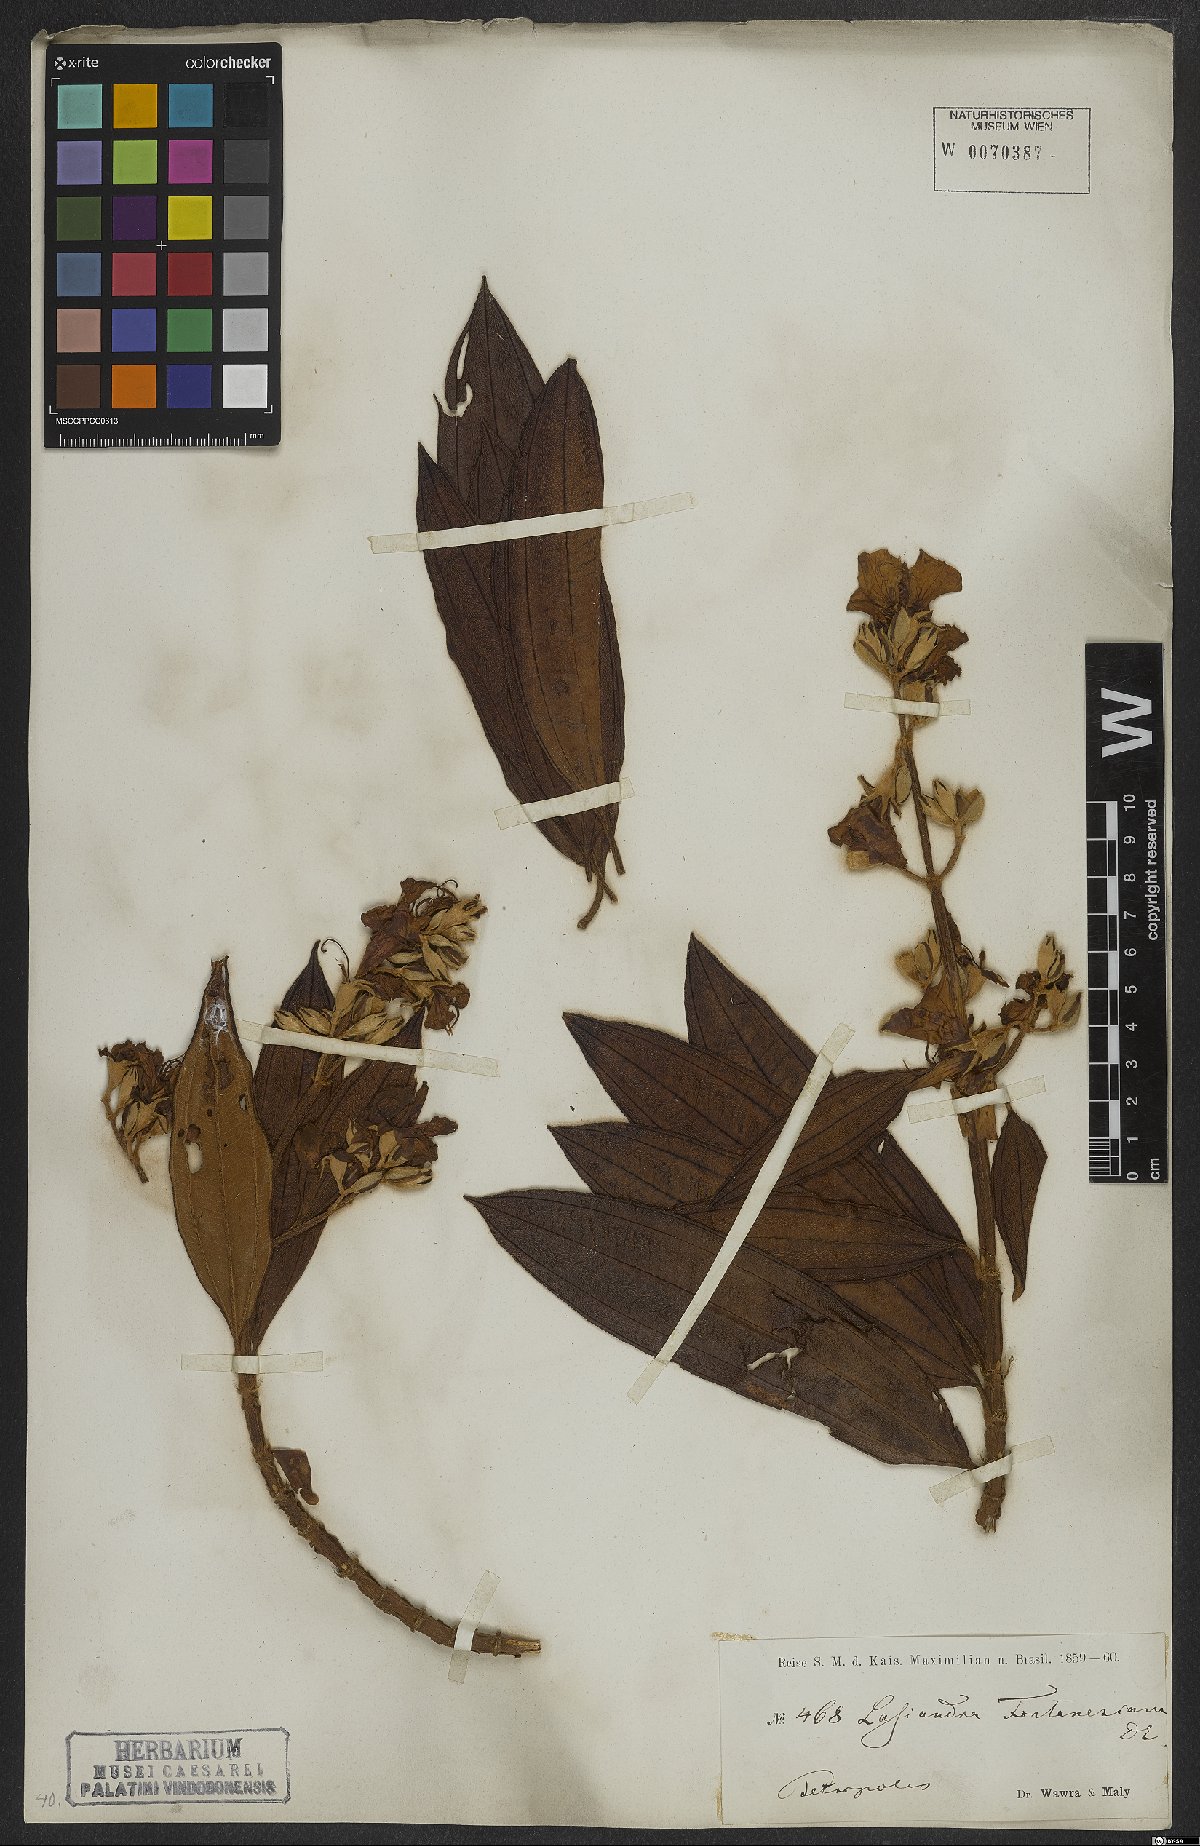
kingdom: Plantae
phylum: Tracheophyta
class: Magnoliopsida
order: Myrtales
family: Melastomataceae
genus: Pleroma
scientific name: Pleroma granulosum
